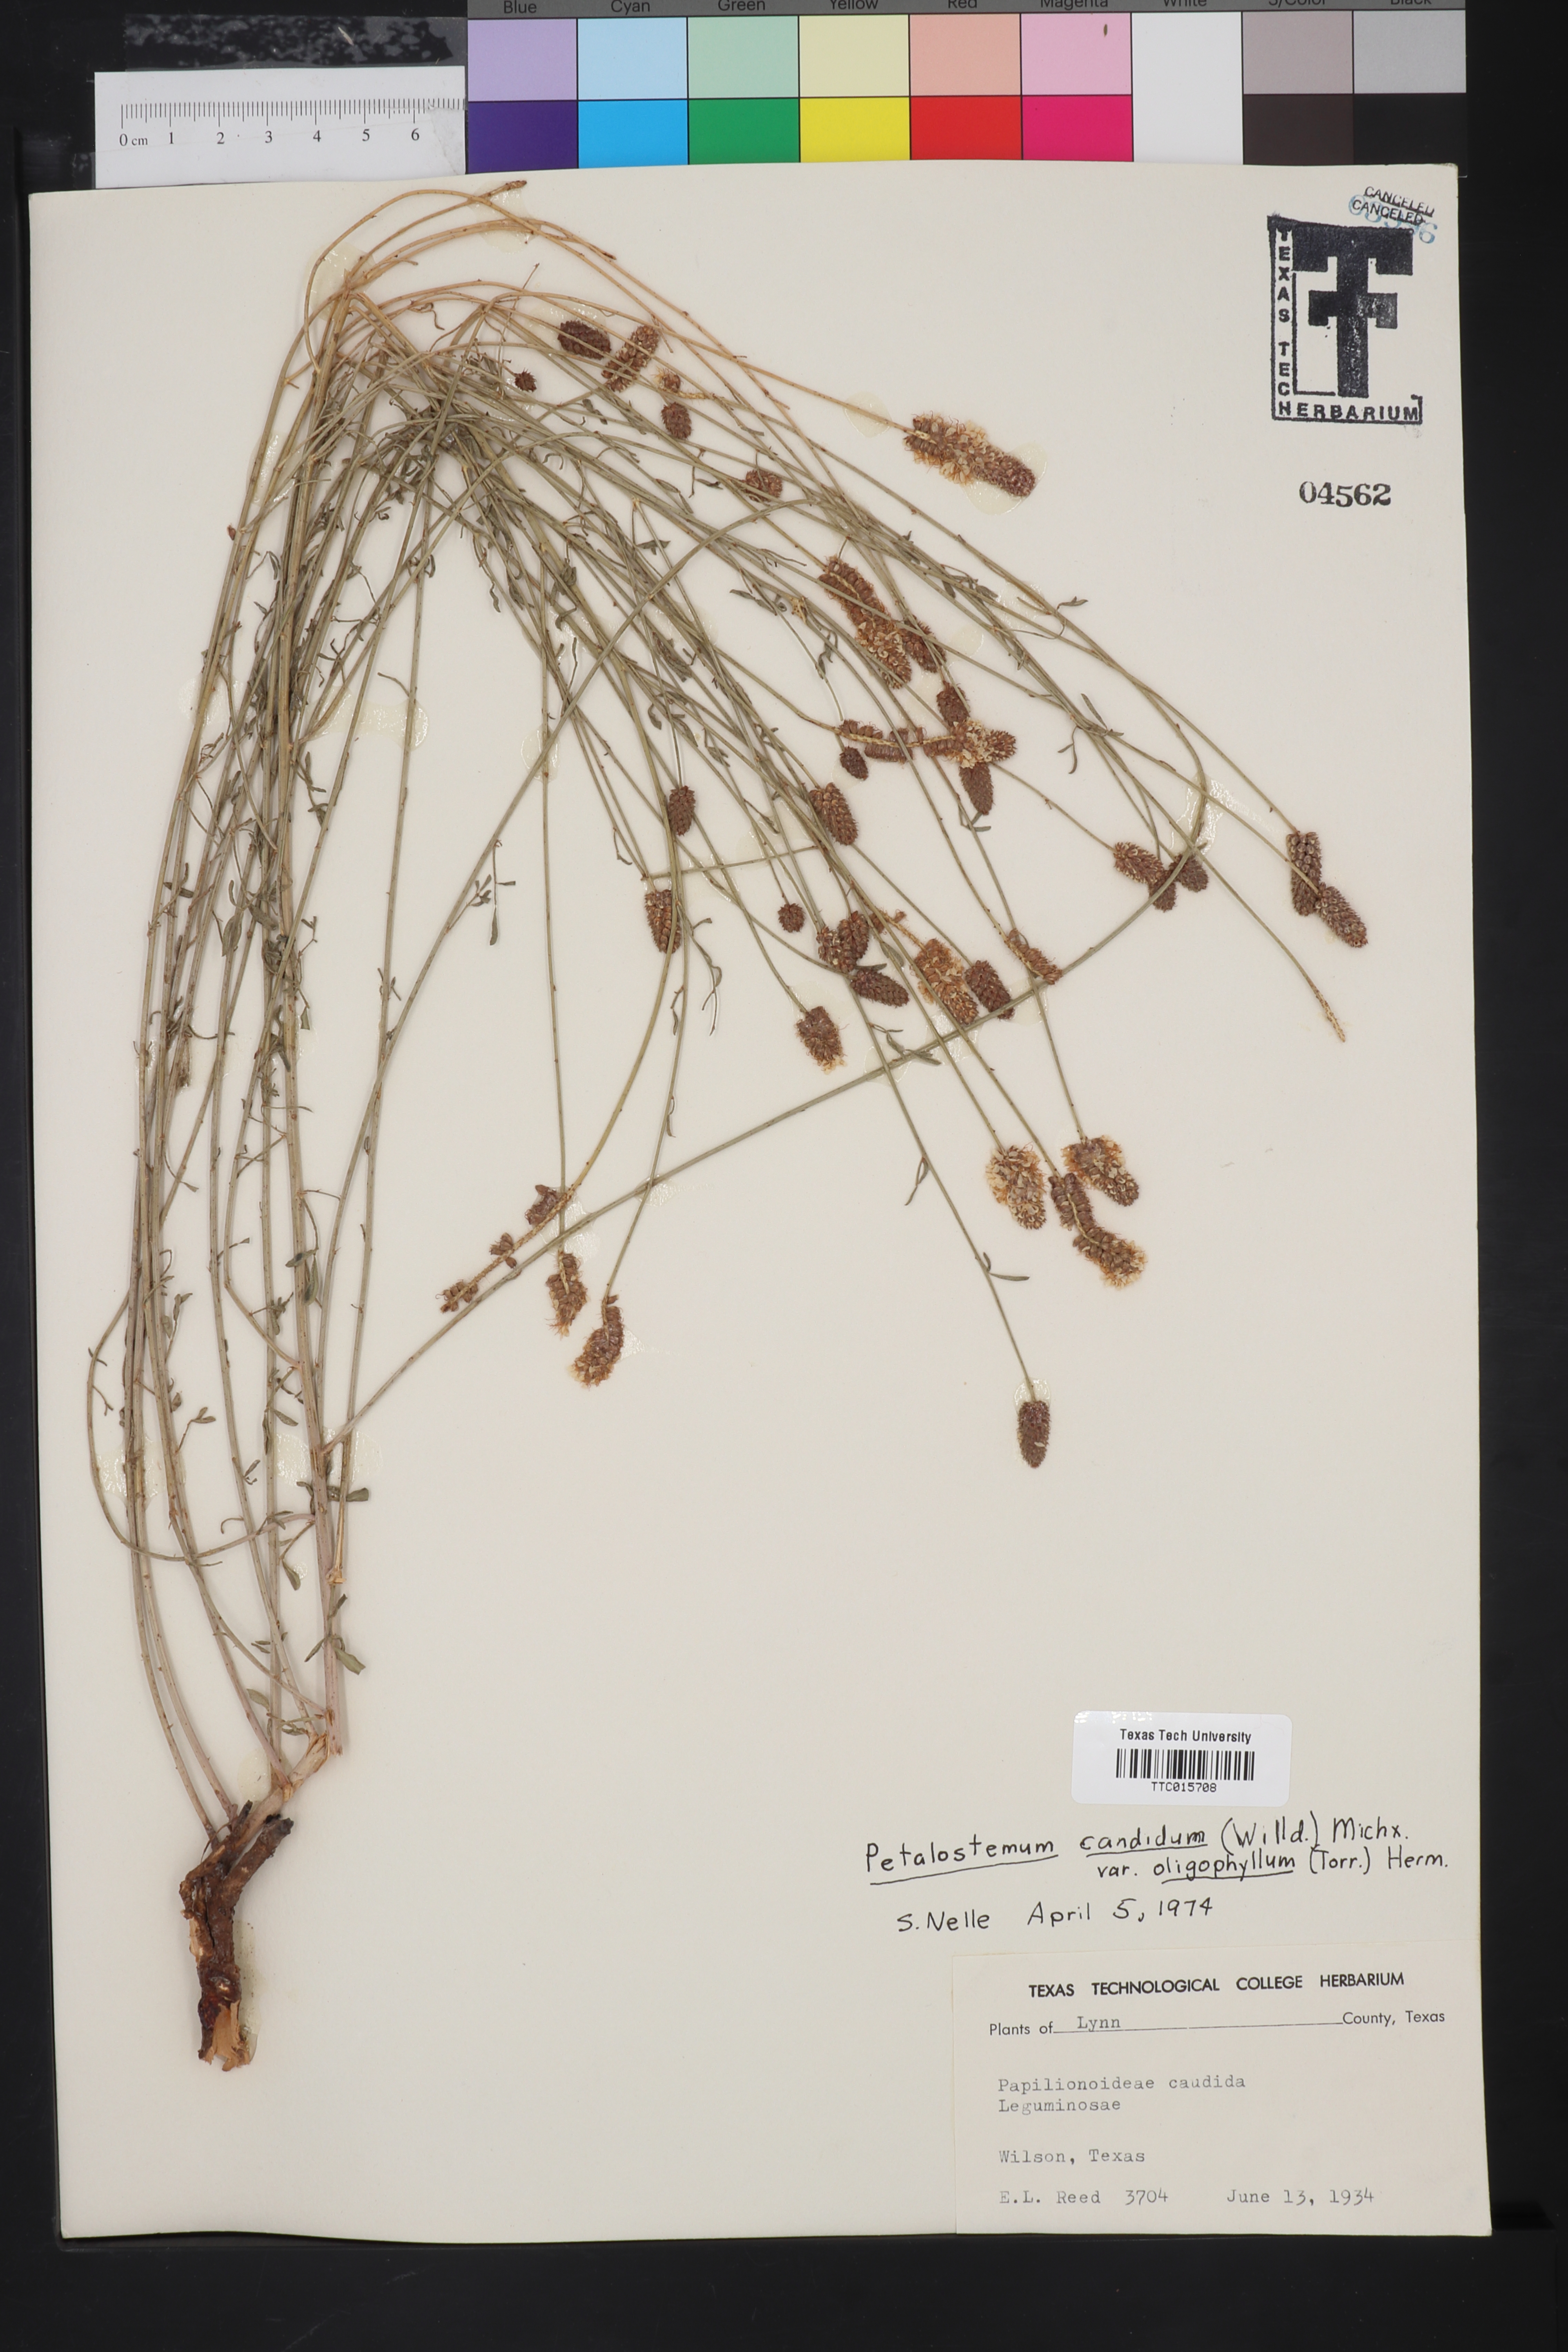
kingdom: Plantae
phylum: Tracheophyta
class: Magnoliopsida
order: Fabales
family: Fabaceae
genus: Petalostemum
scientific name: Petalostemum
